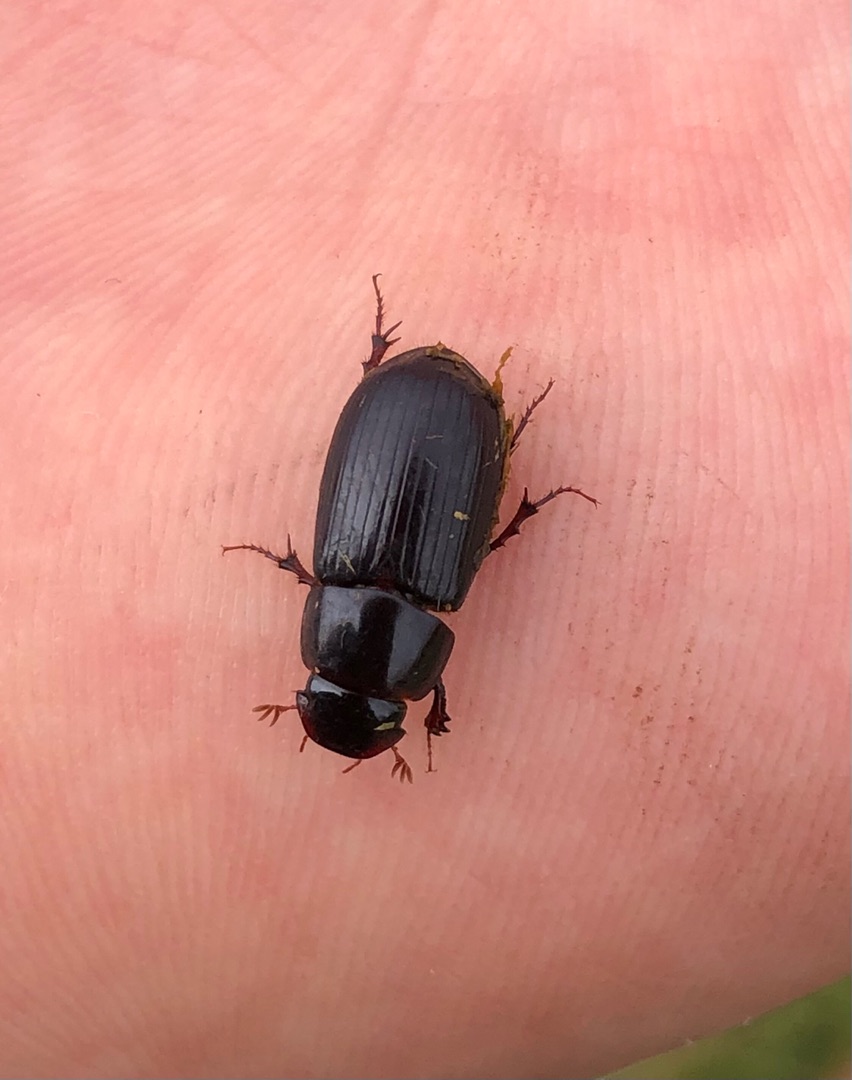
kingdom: Animalia
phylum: Arthropoda
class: Insecta
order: Coleoptera
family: Scarabaeidae
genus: Acrossus
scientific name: Acrossus rufipes
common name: Rødbenet møgbille
